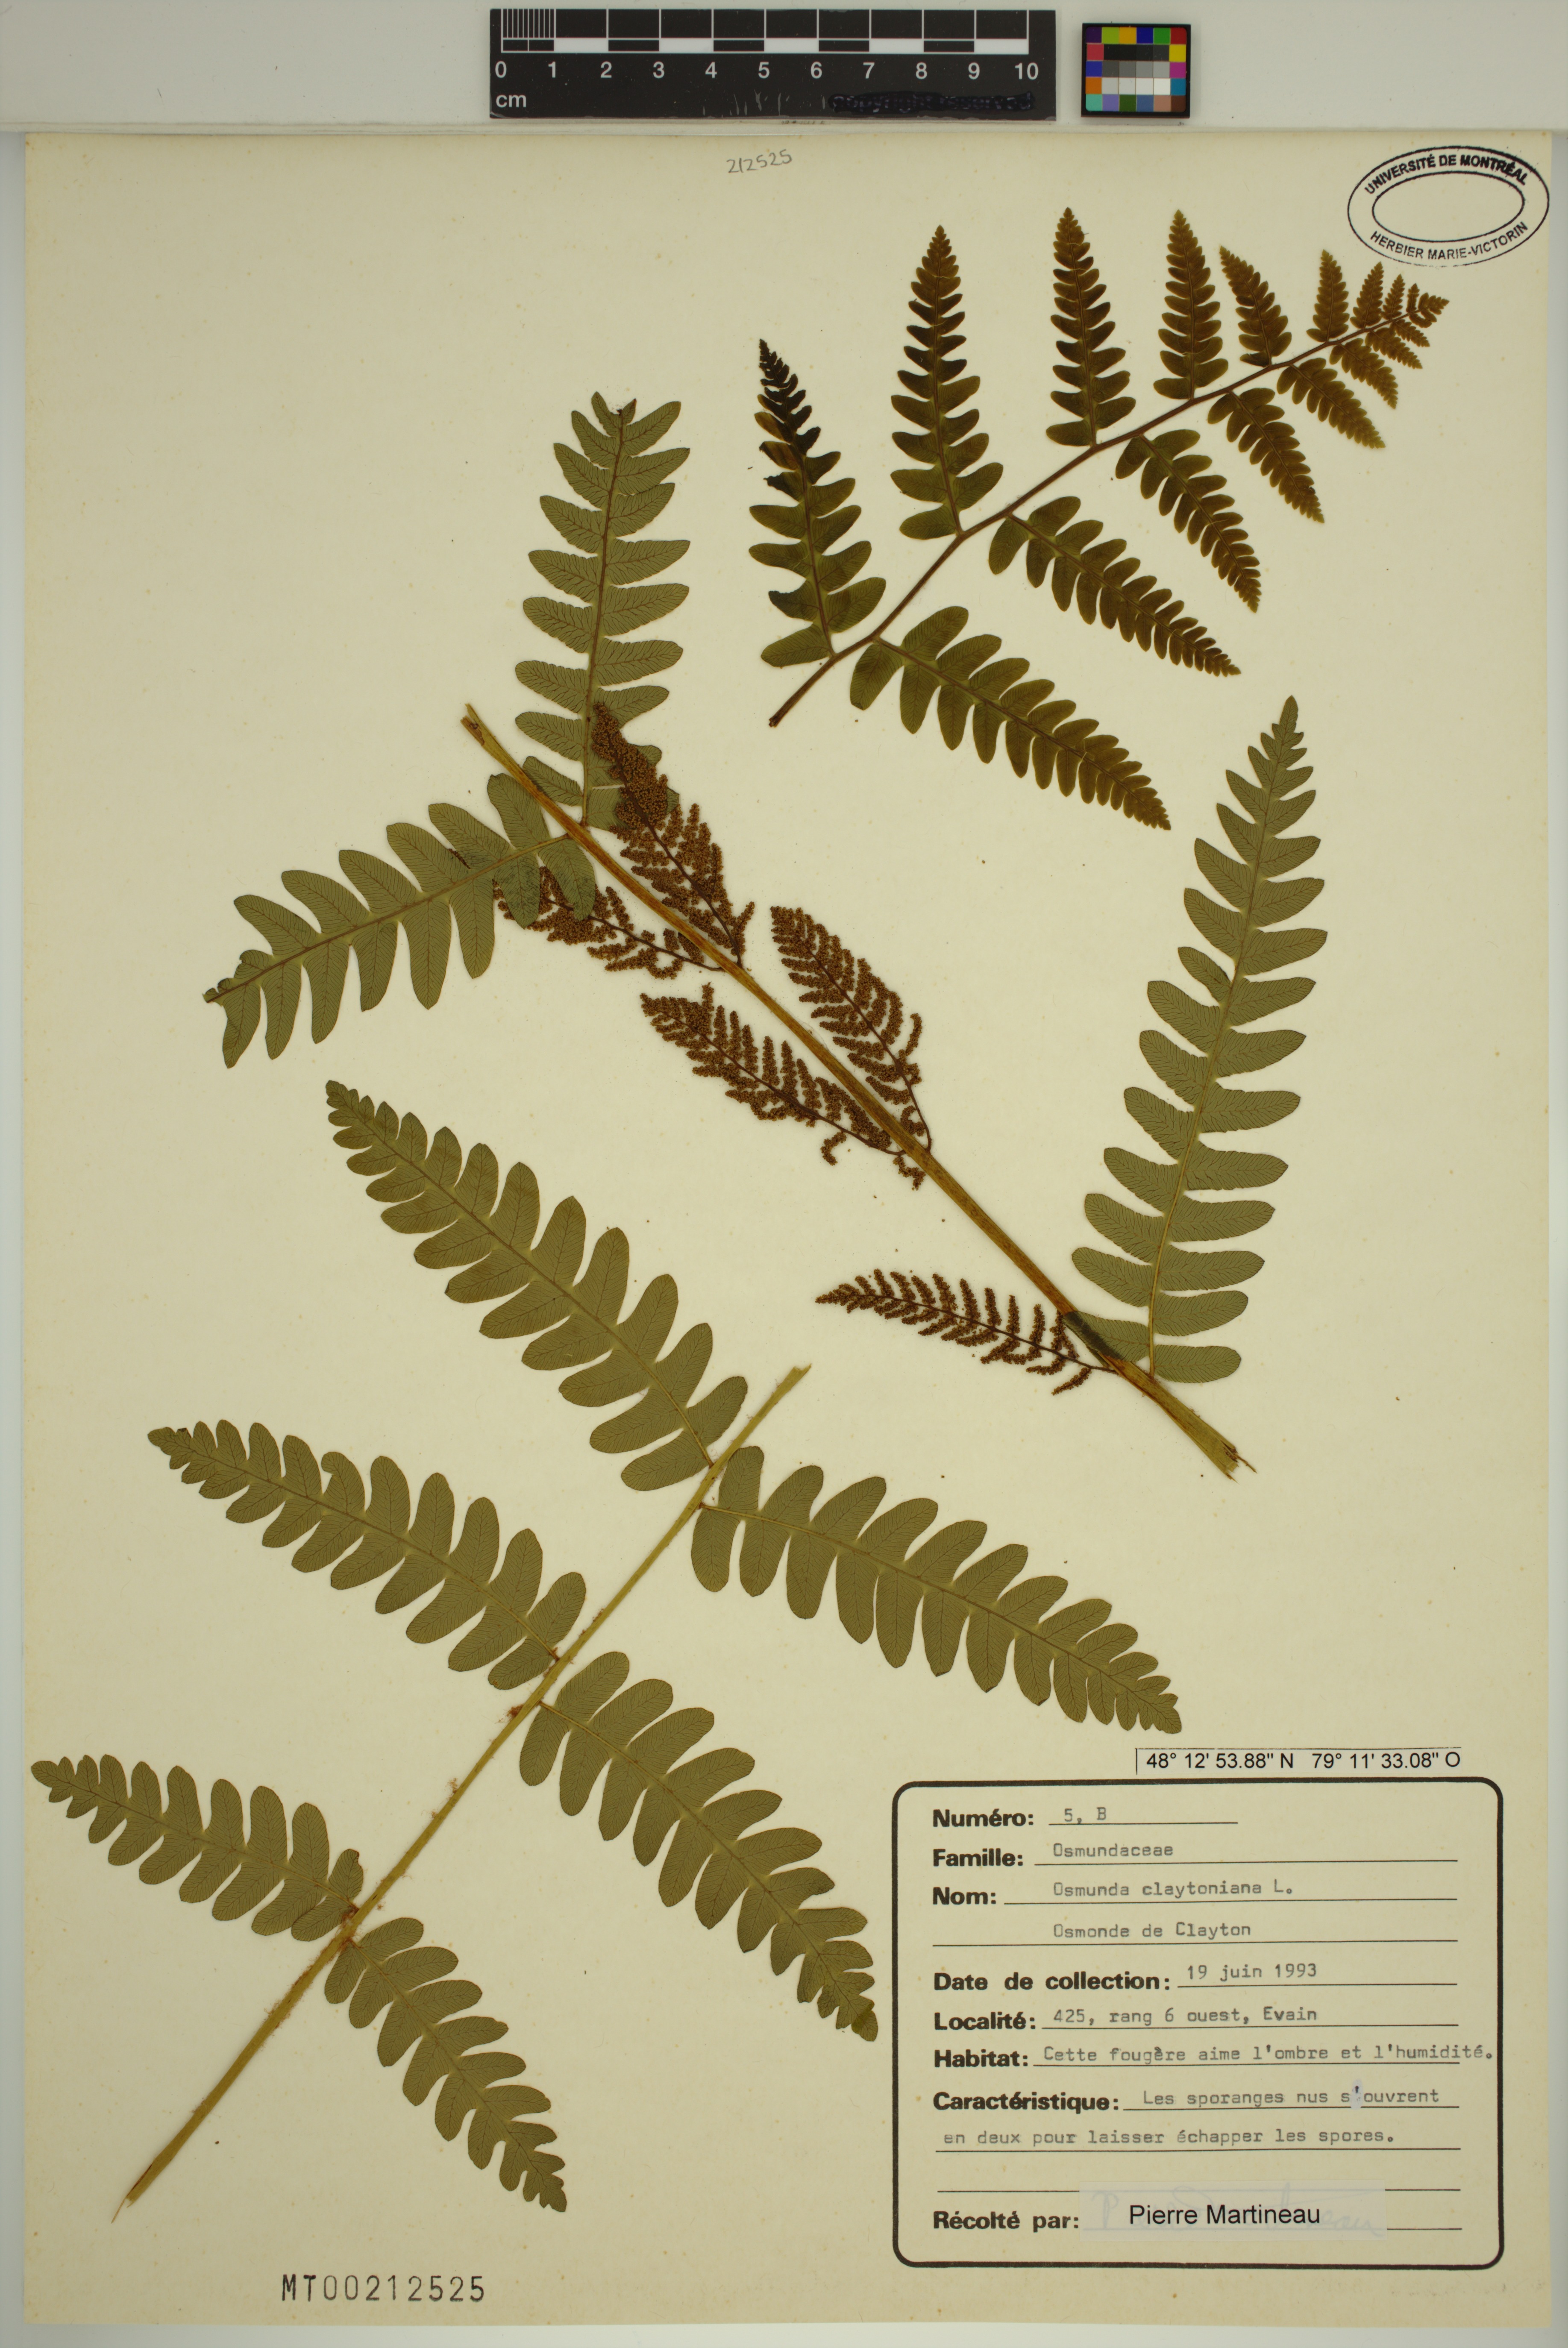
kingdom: Plantae
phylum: Tracheophyta
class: Polypodiopsida
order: Osmundales
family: Osmundaceae
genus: Claytosmunda
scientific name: Claytosmunda claytoniana
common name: Clayton's fern
